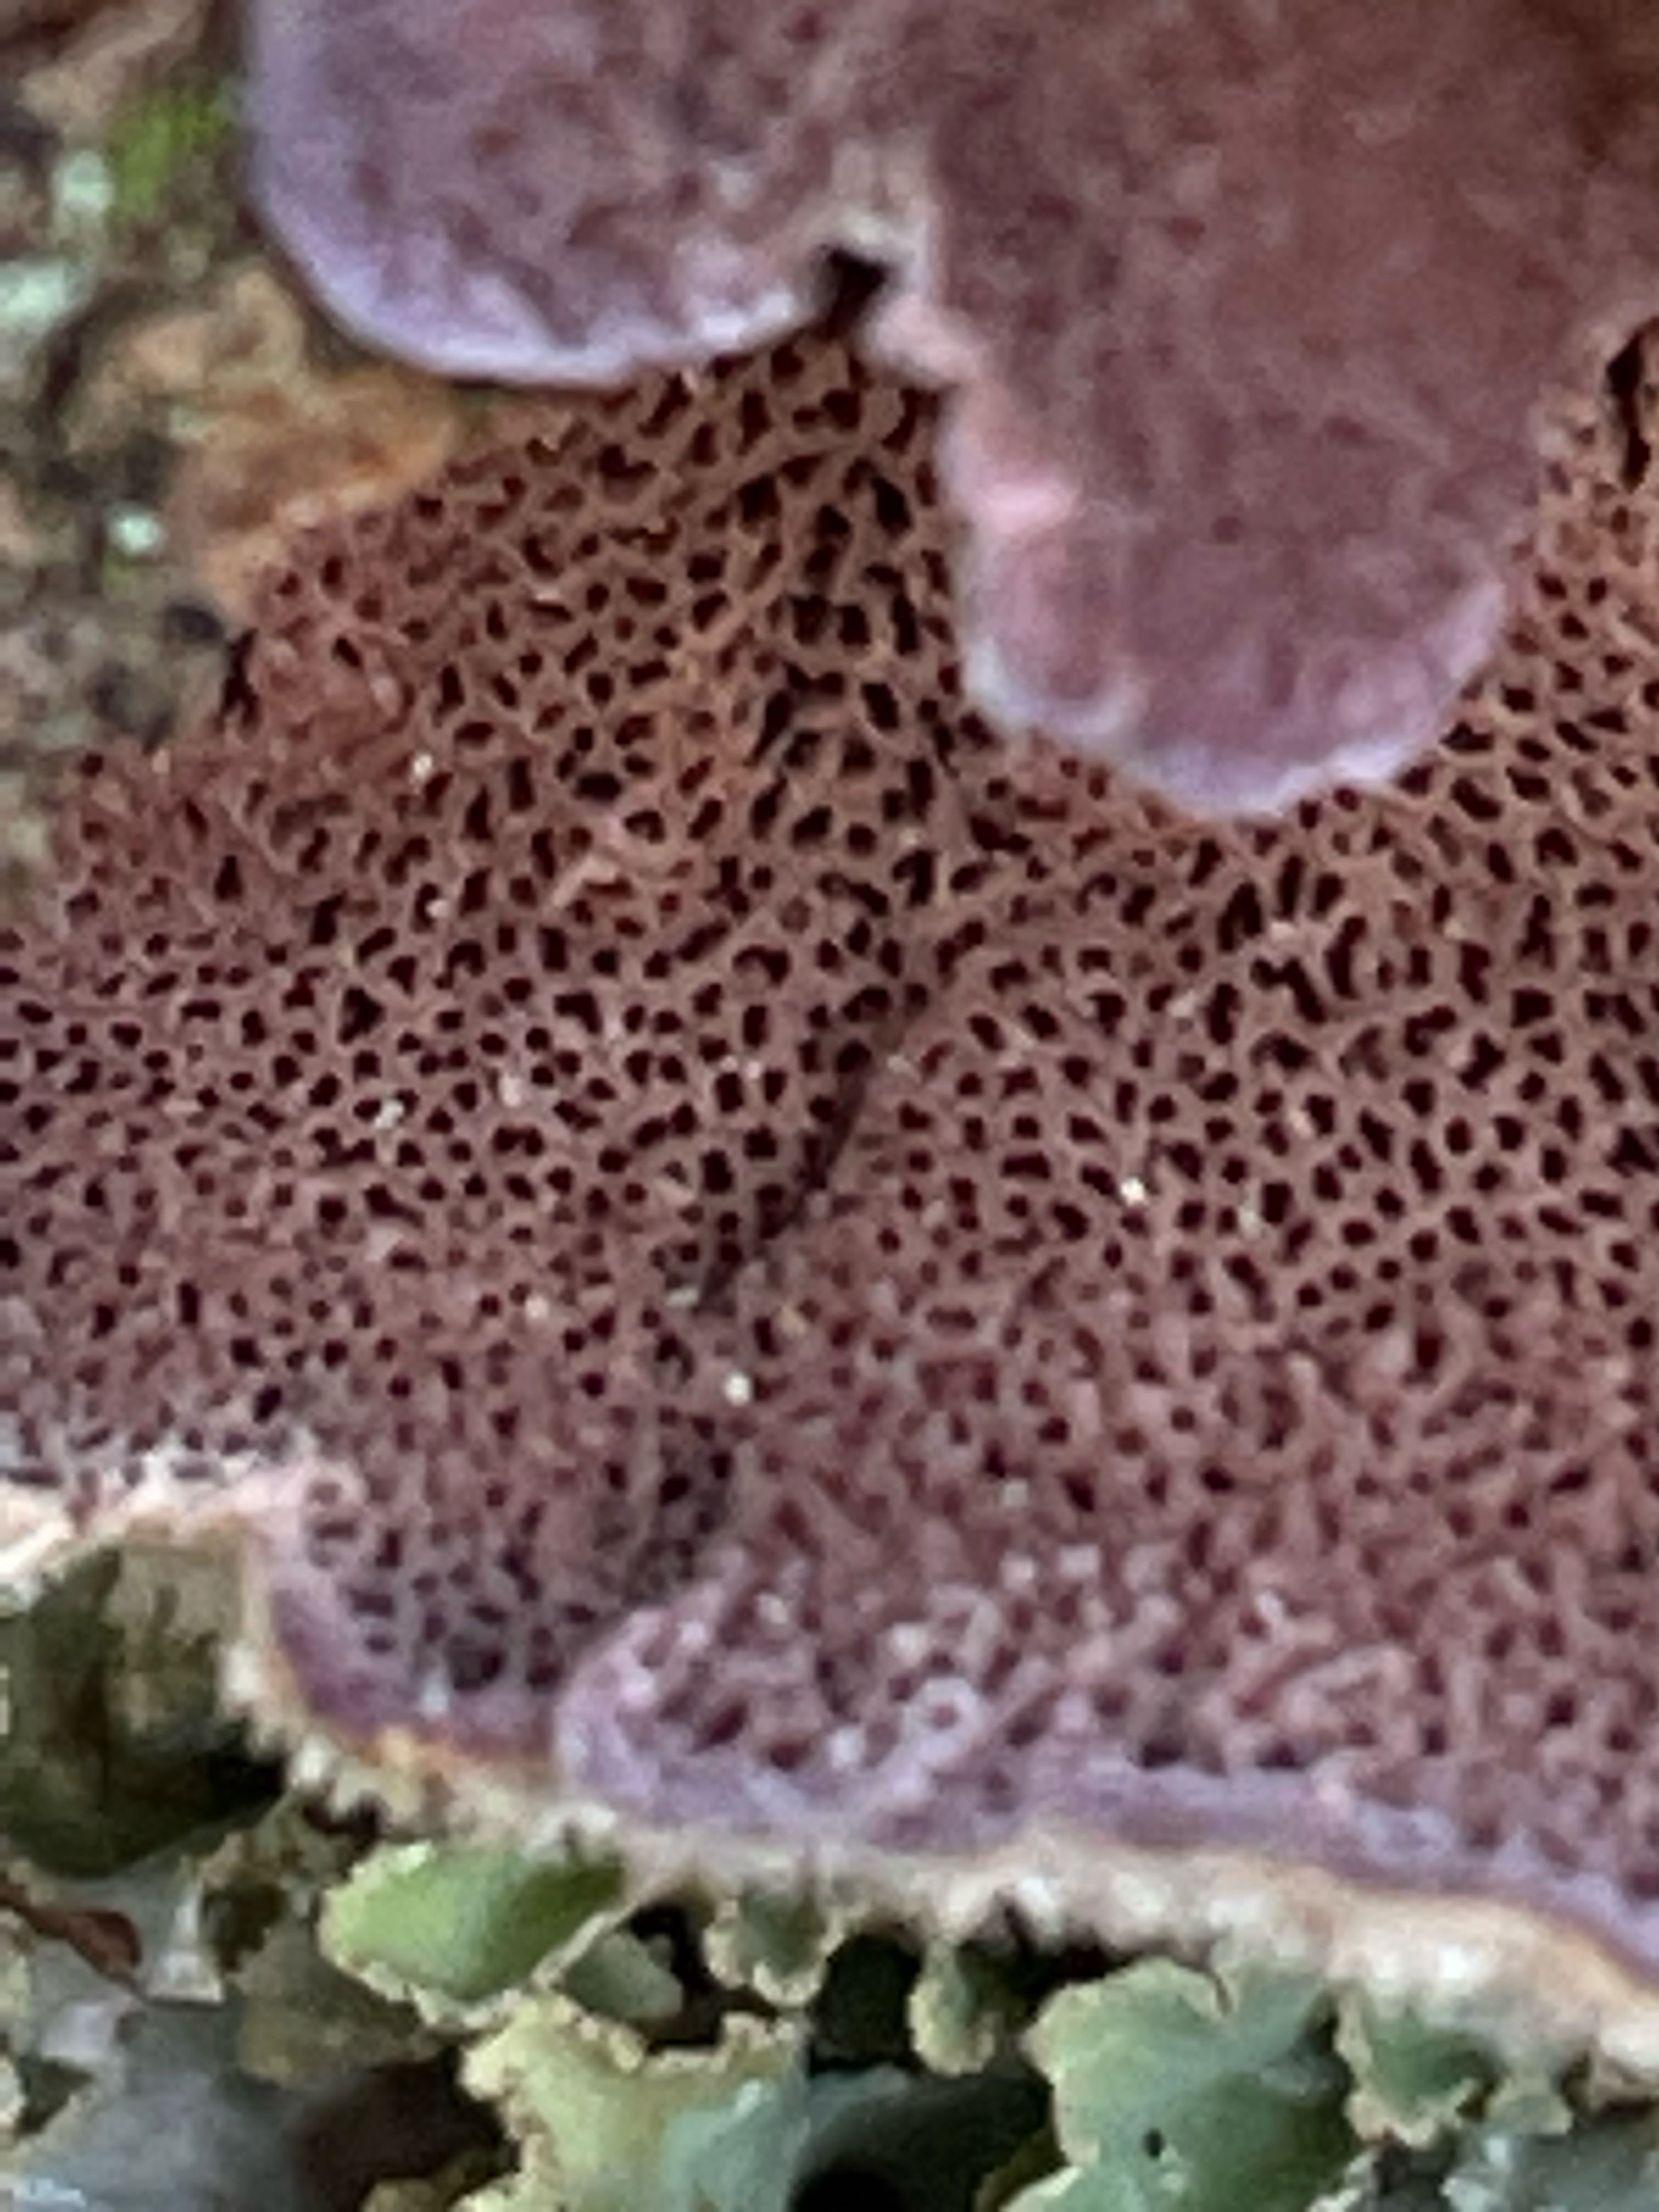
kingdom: Fungi
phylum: Basidiomycota
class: Agaricomycetes
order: Hymenochaetales
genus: Trichaptum
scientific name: Trichaptum abietinum
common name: almindelig violporesvamp
